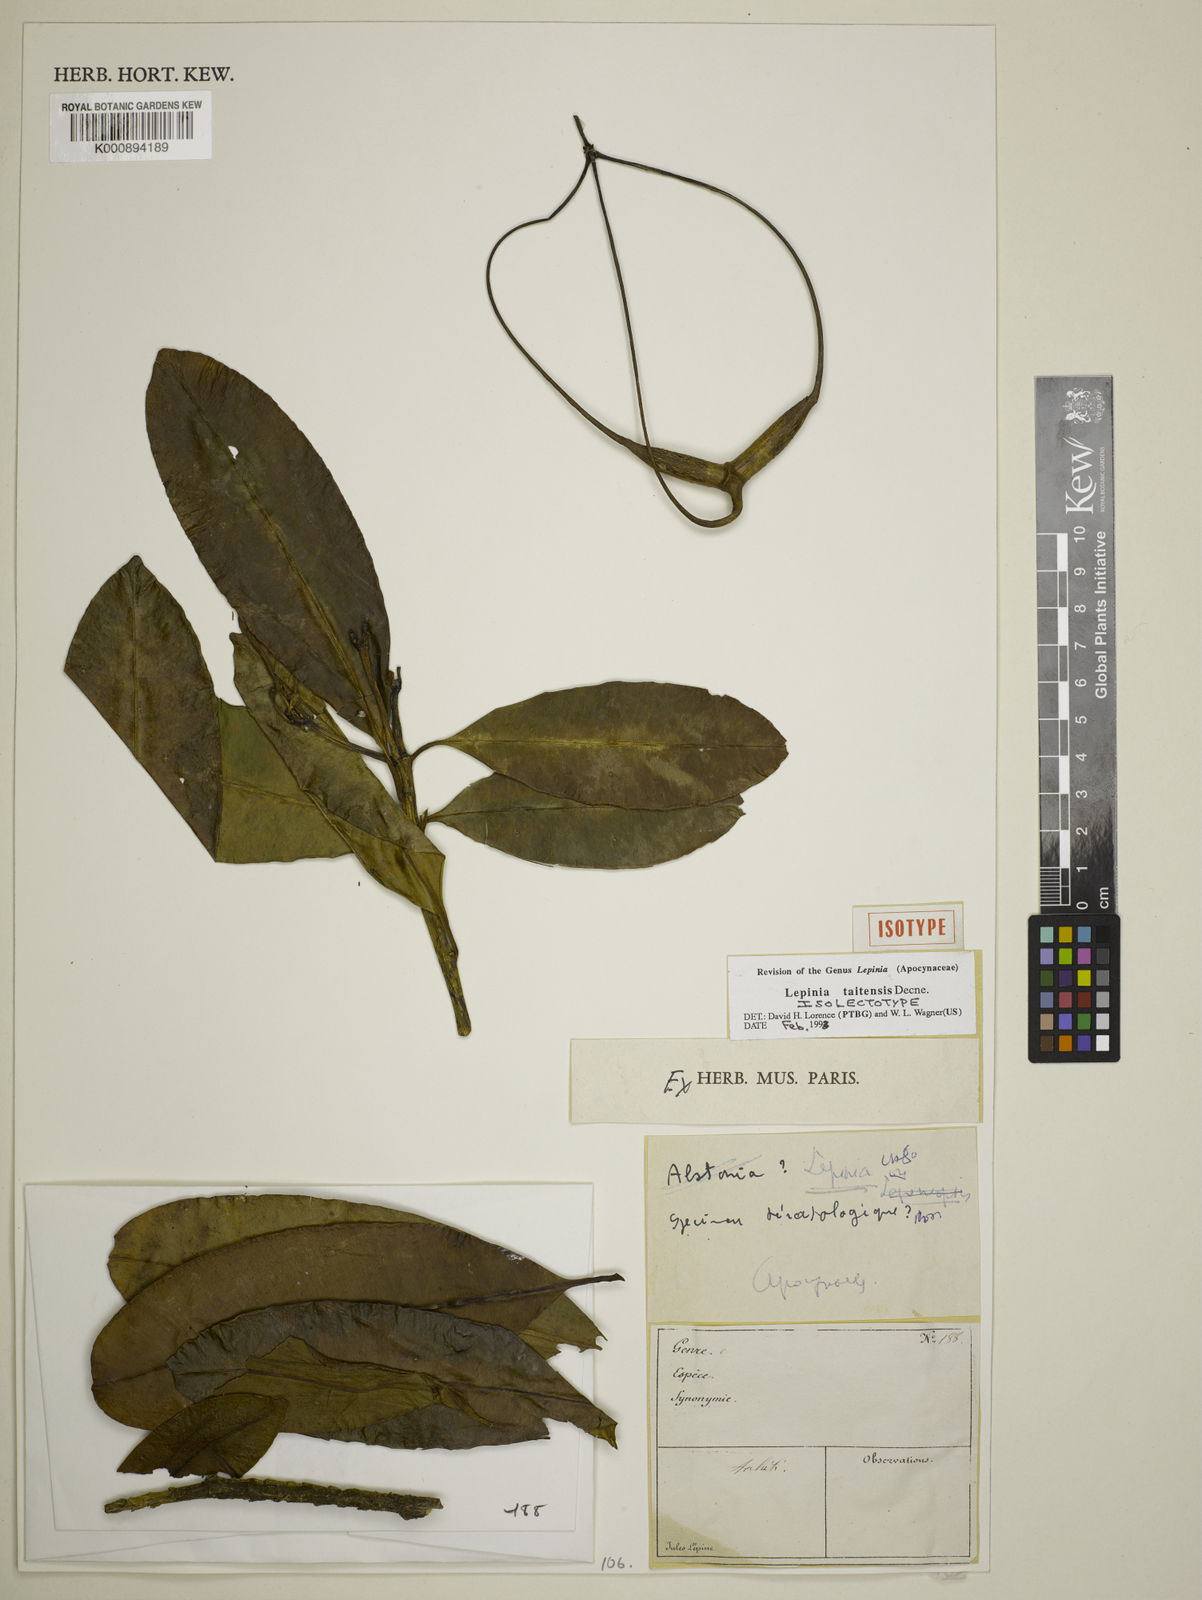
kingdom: Plantae
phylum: Tracheophyta
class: Magnoliopsida
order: Gentianales
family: Apocynaceae
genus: Lepinia
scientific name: Lepinia taitensis
